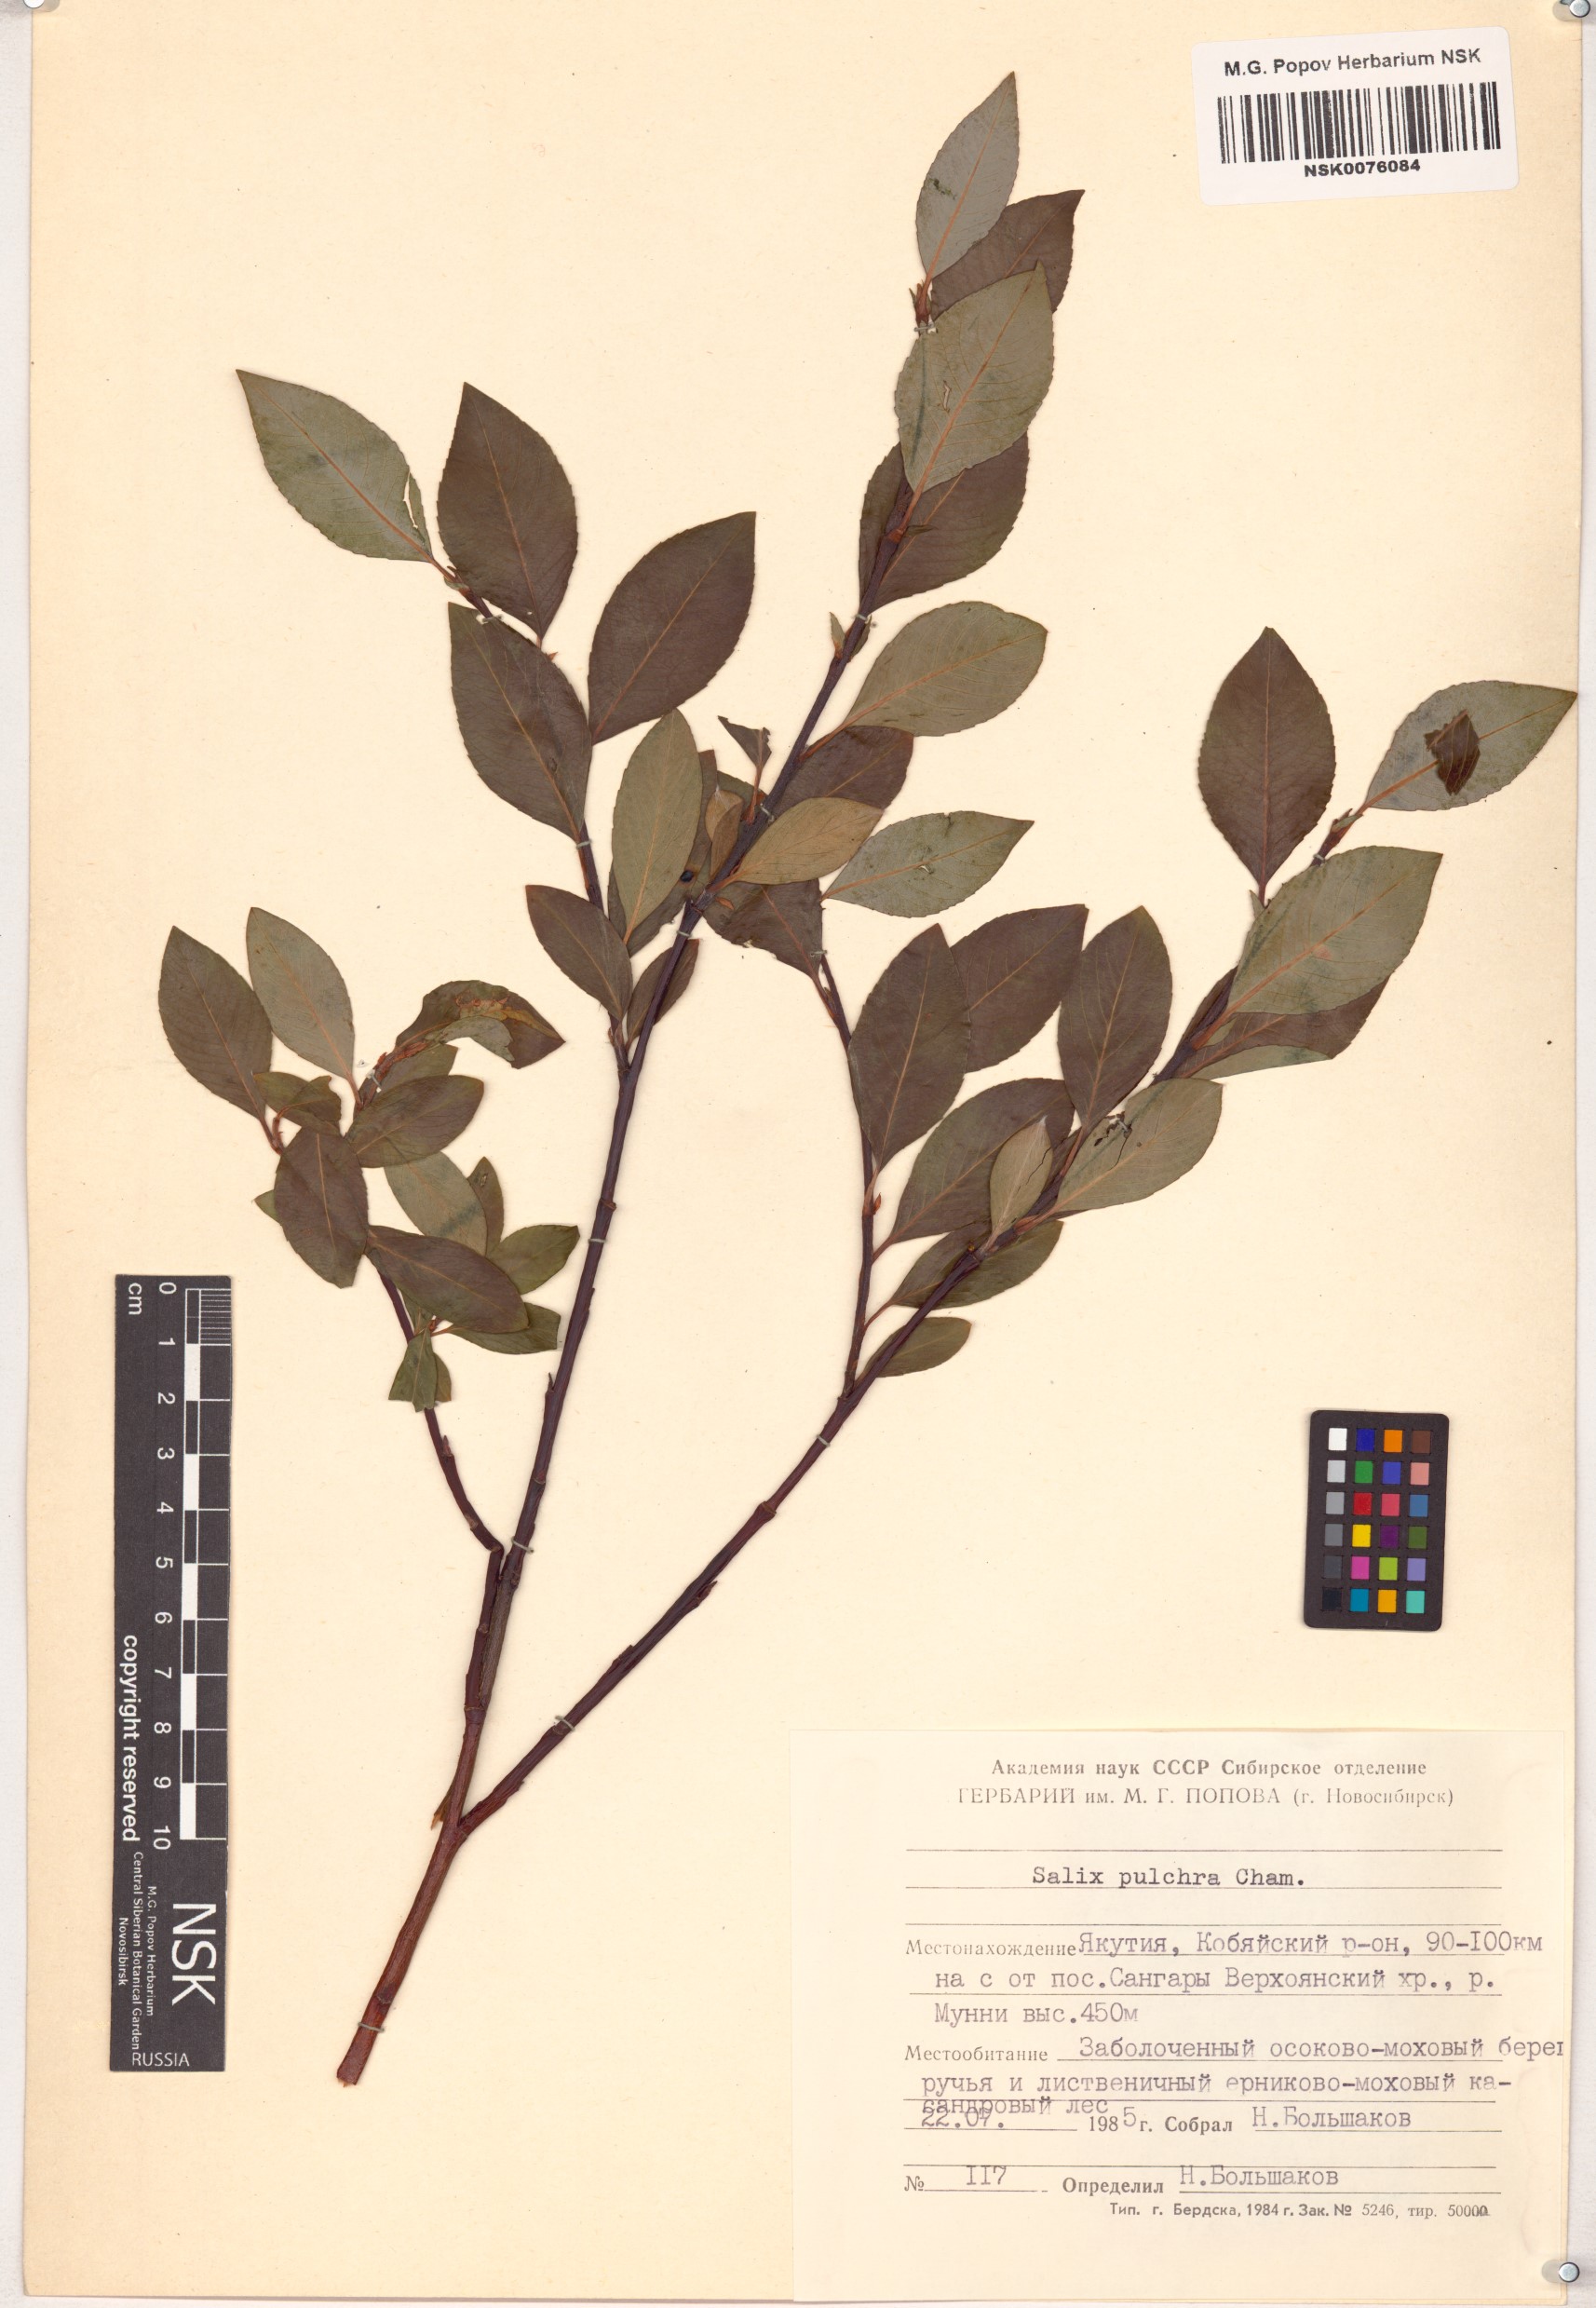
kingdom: Plantae
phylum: Tracheophyta
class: Magnoliopsida
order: Malpighiales
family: Salicaceae
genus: Salix
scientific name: Salix pulchra
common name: Diamond-leaved willow
